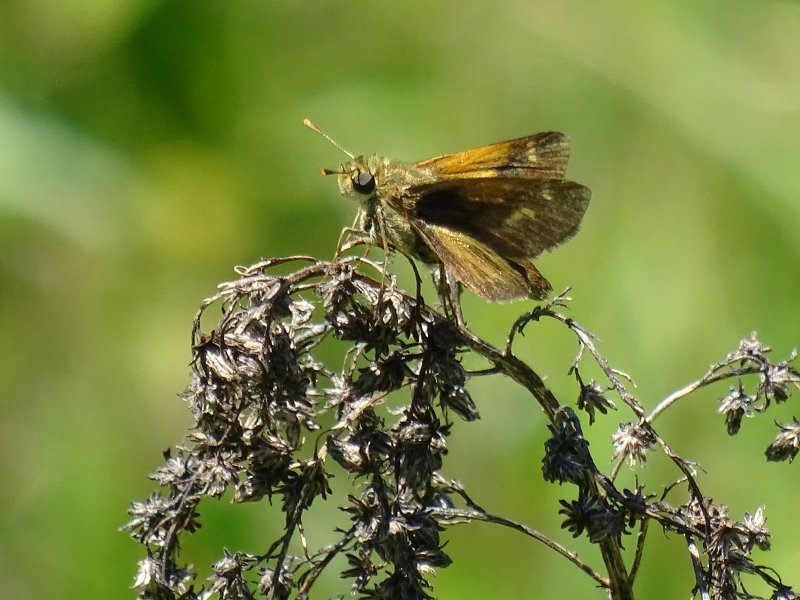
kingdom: Animalia
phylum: Arthropoda
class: Insecta
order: Lepidoptera
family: Hesperiidae
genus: Polites
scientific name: Polites themistocles
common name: Tawny-edged Skipper
